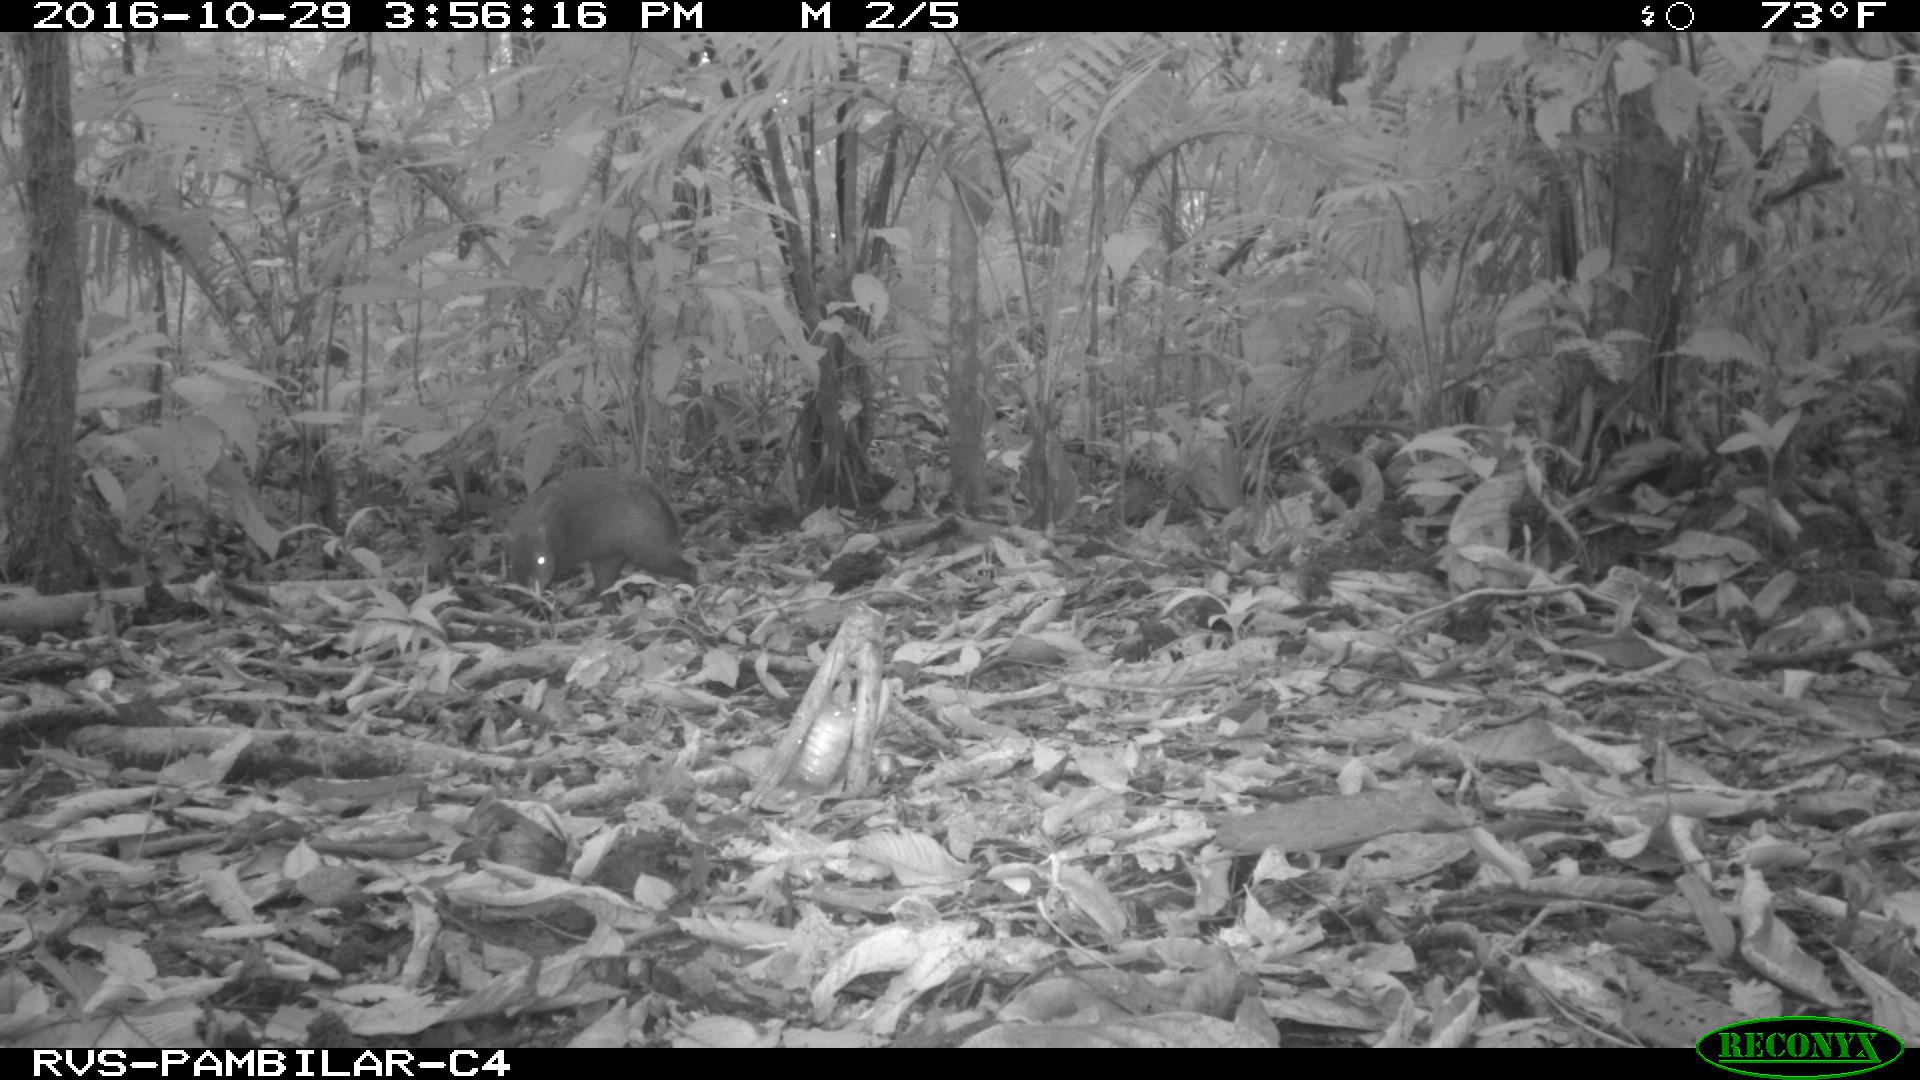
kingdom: Animalia
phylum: Chordata
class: Mammalia
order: Rodentia
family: Dasyproctidae
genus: Dasyprocta
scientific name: Dasyprocta punctata
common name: Central american agouti
